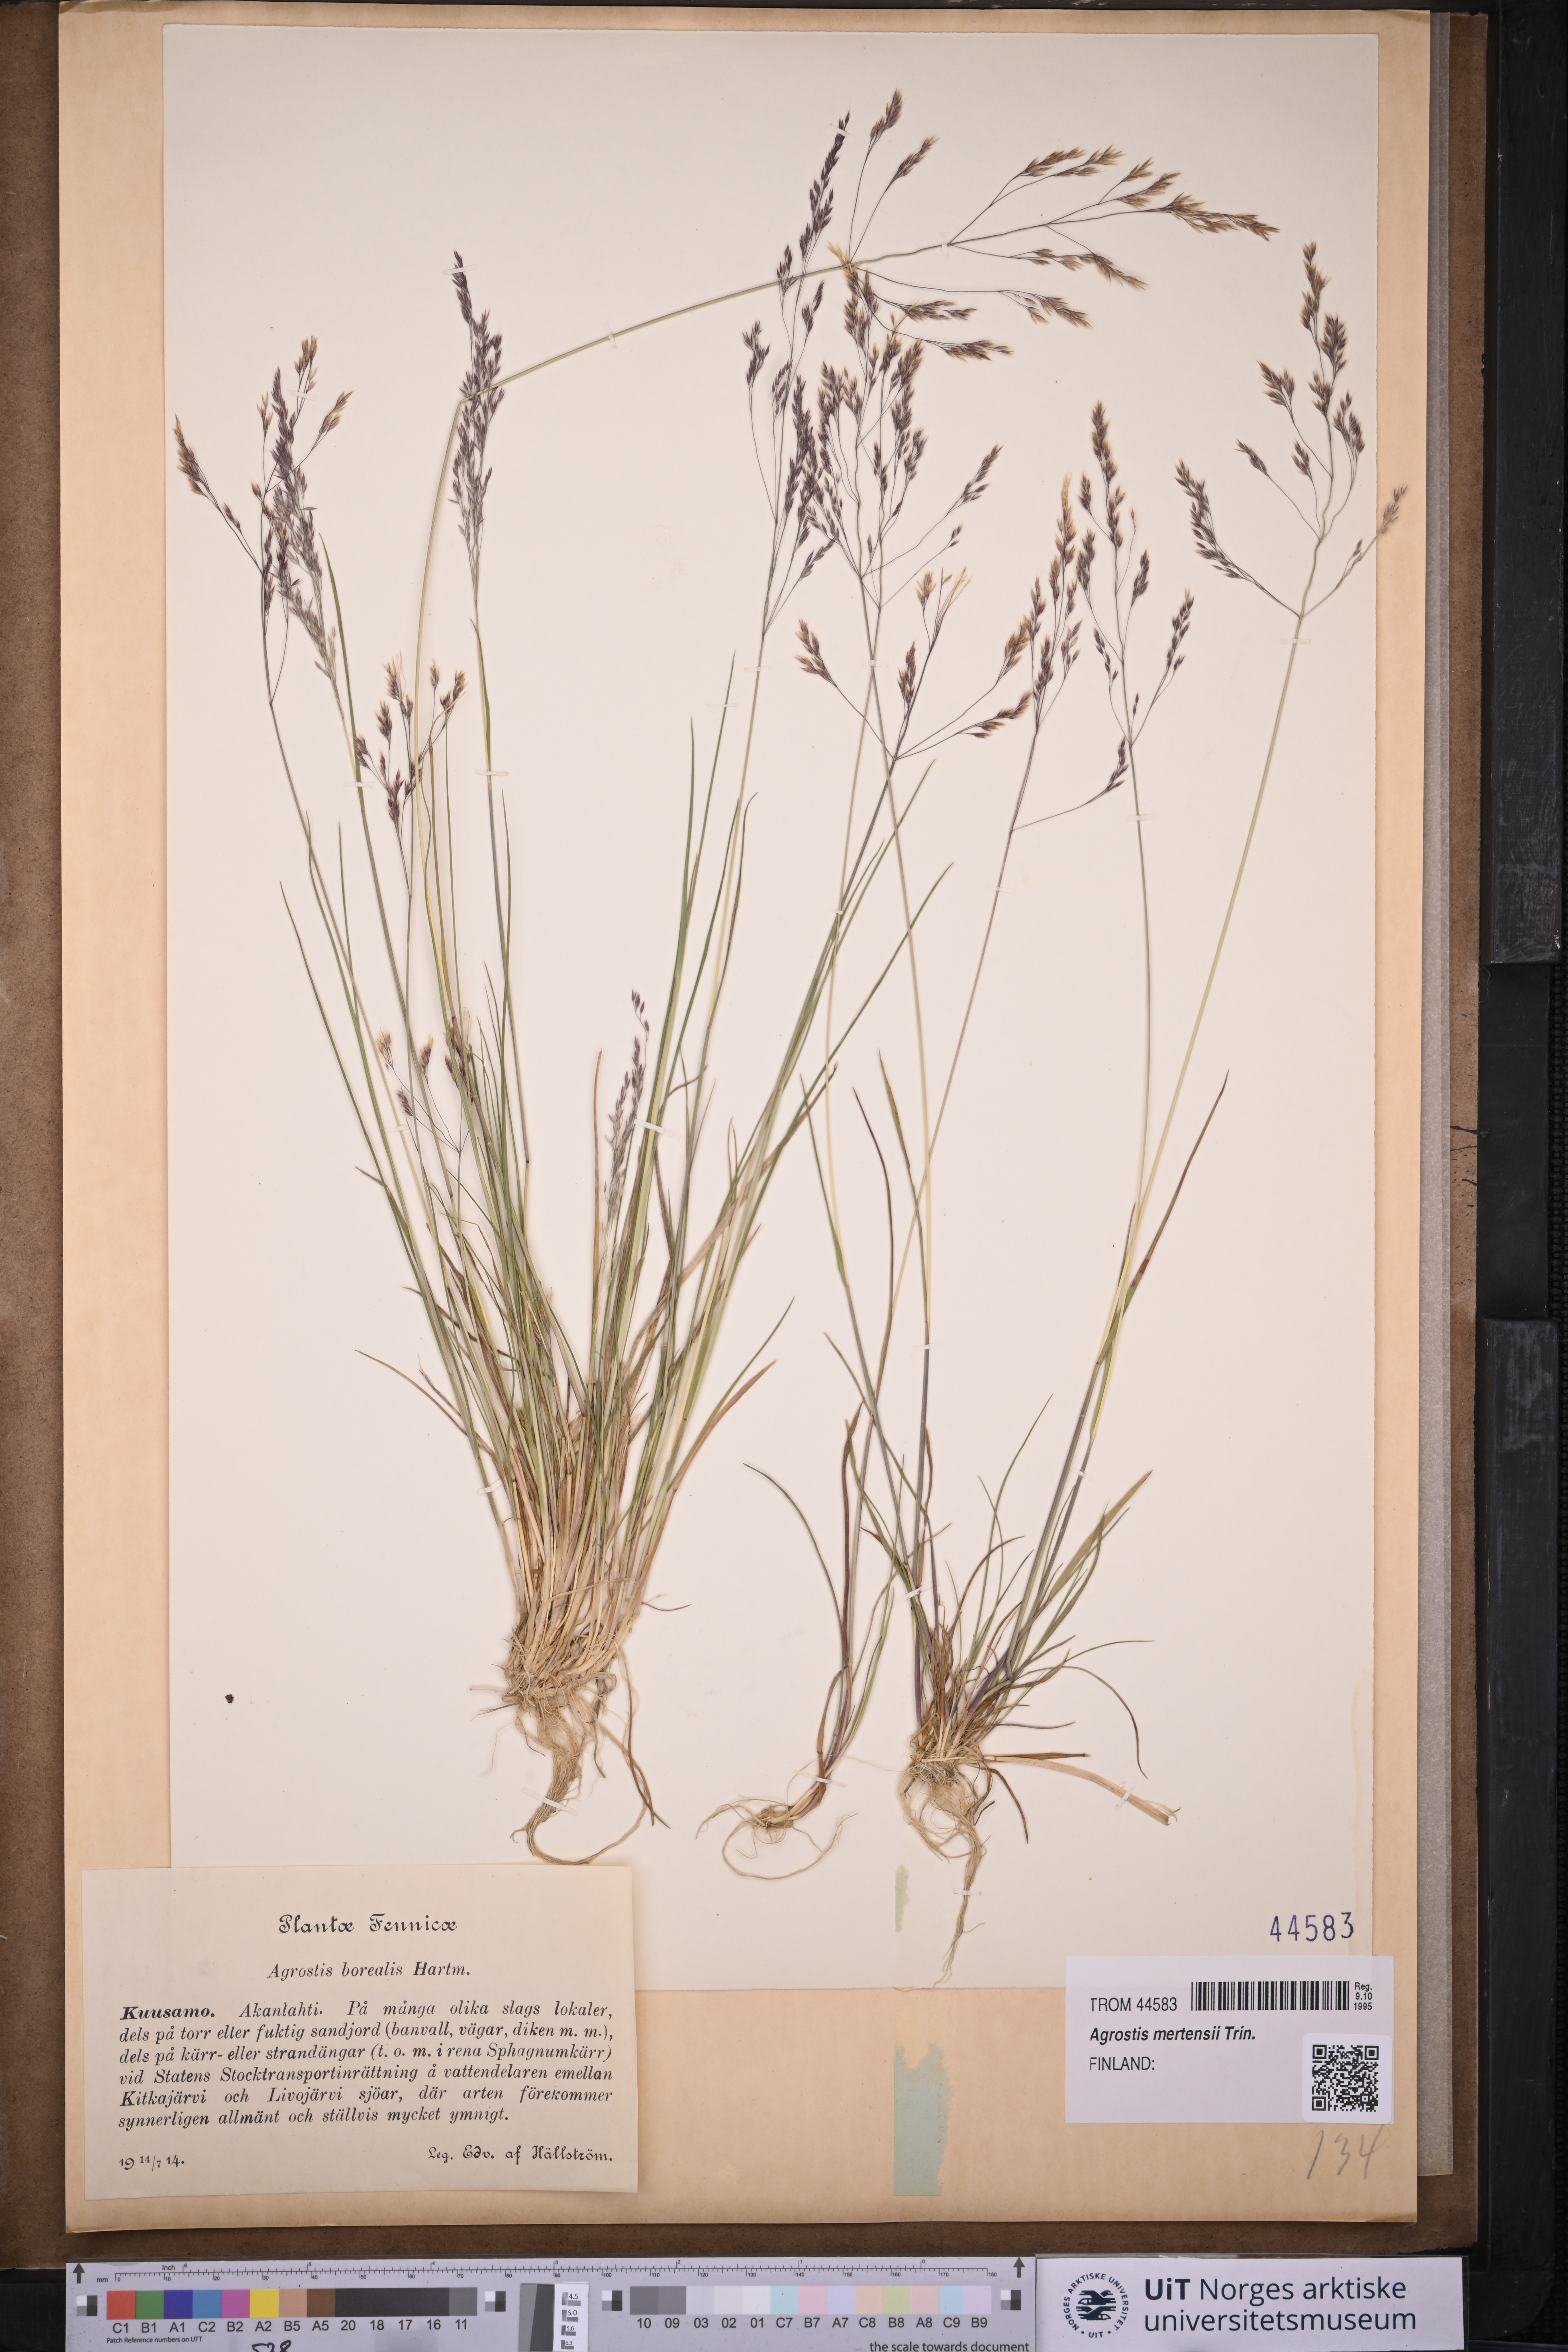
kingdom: Plantae
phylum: Tracheophyta
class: Liliopsida
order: Poales
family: Poaceae
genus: Agrostis
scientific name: Agrostis mertensii
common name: Northern bent
